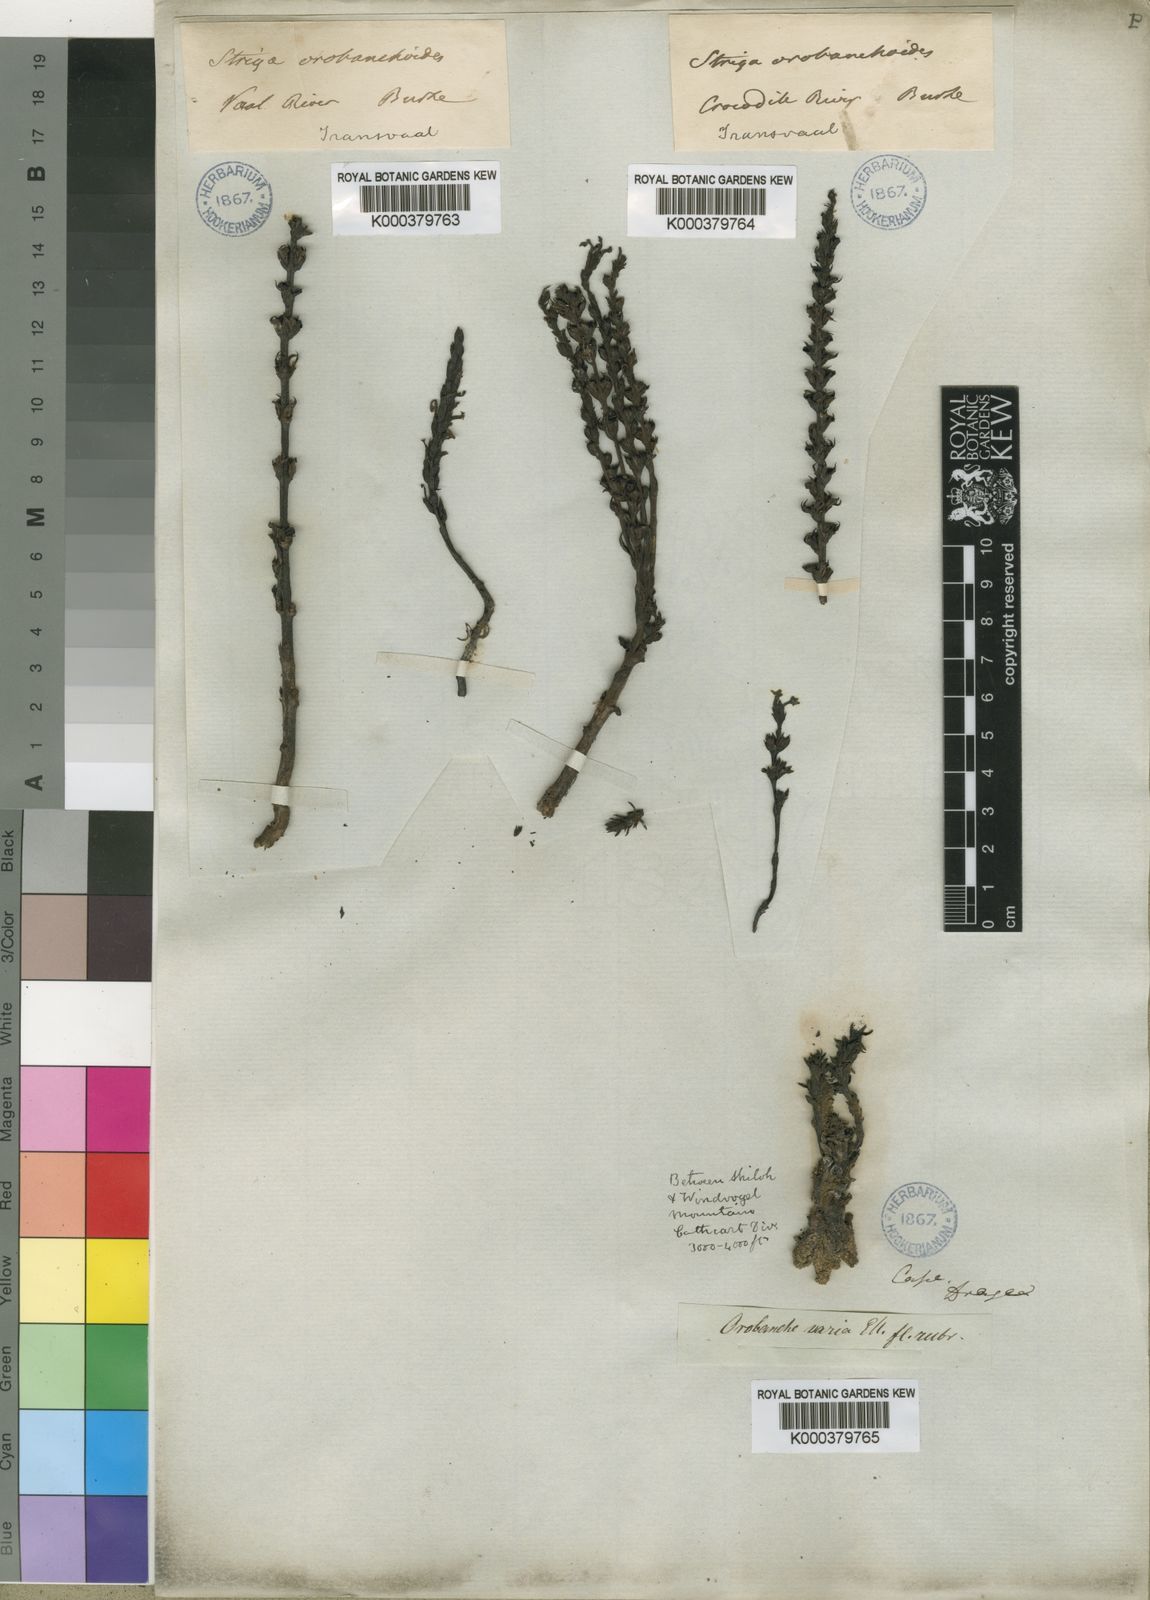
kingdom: Plantae
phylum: Tracheophyta
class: Magnoliopsida
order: Lamiales
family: Orobanchaceae
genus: Striga
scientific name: Striga barthlottii
